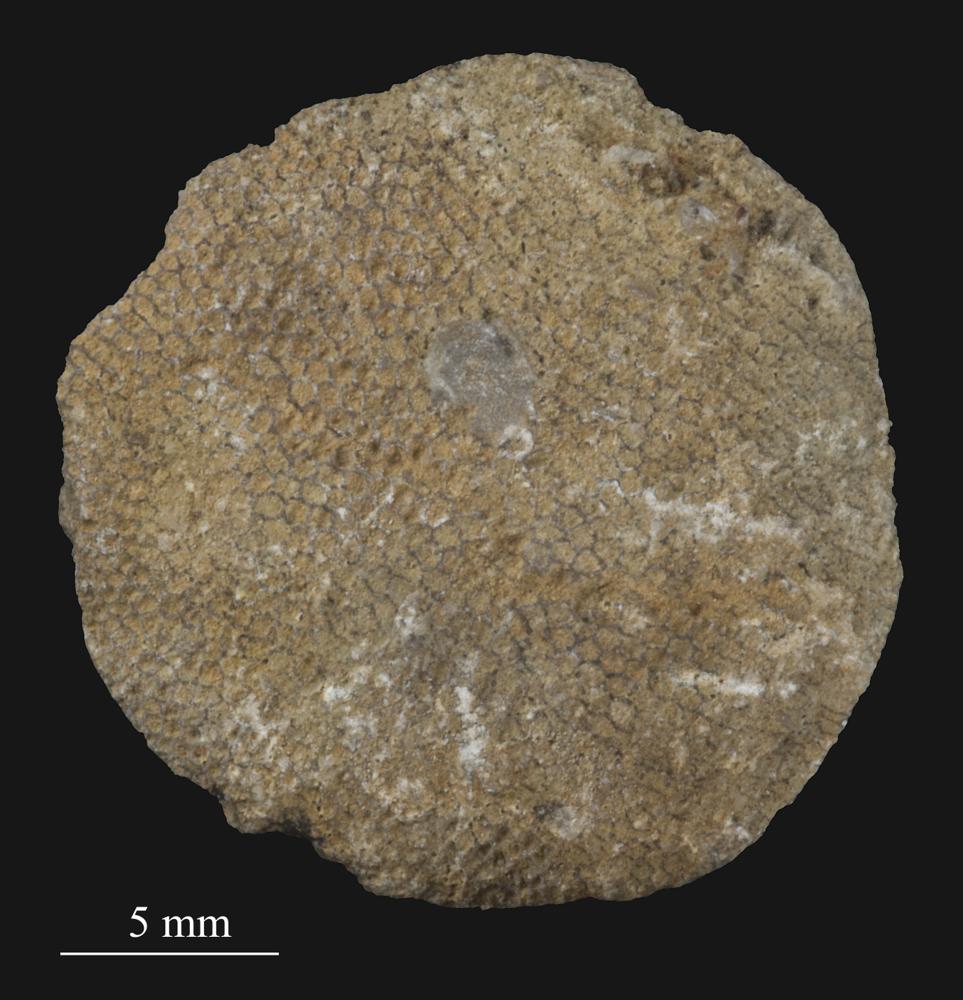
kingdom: Animalia
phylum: Bryozoa
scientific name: Bryozoa
